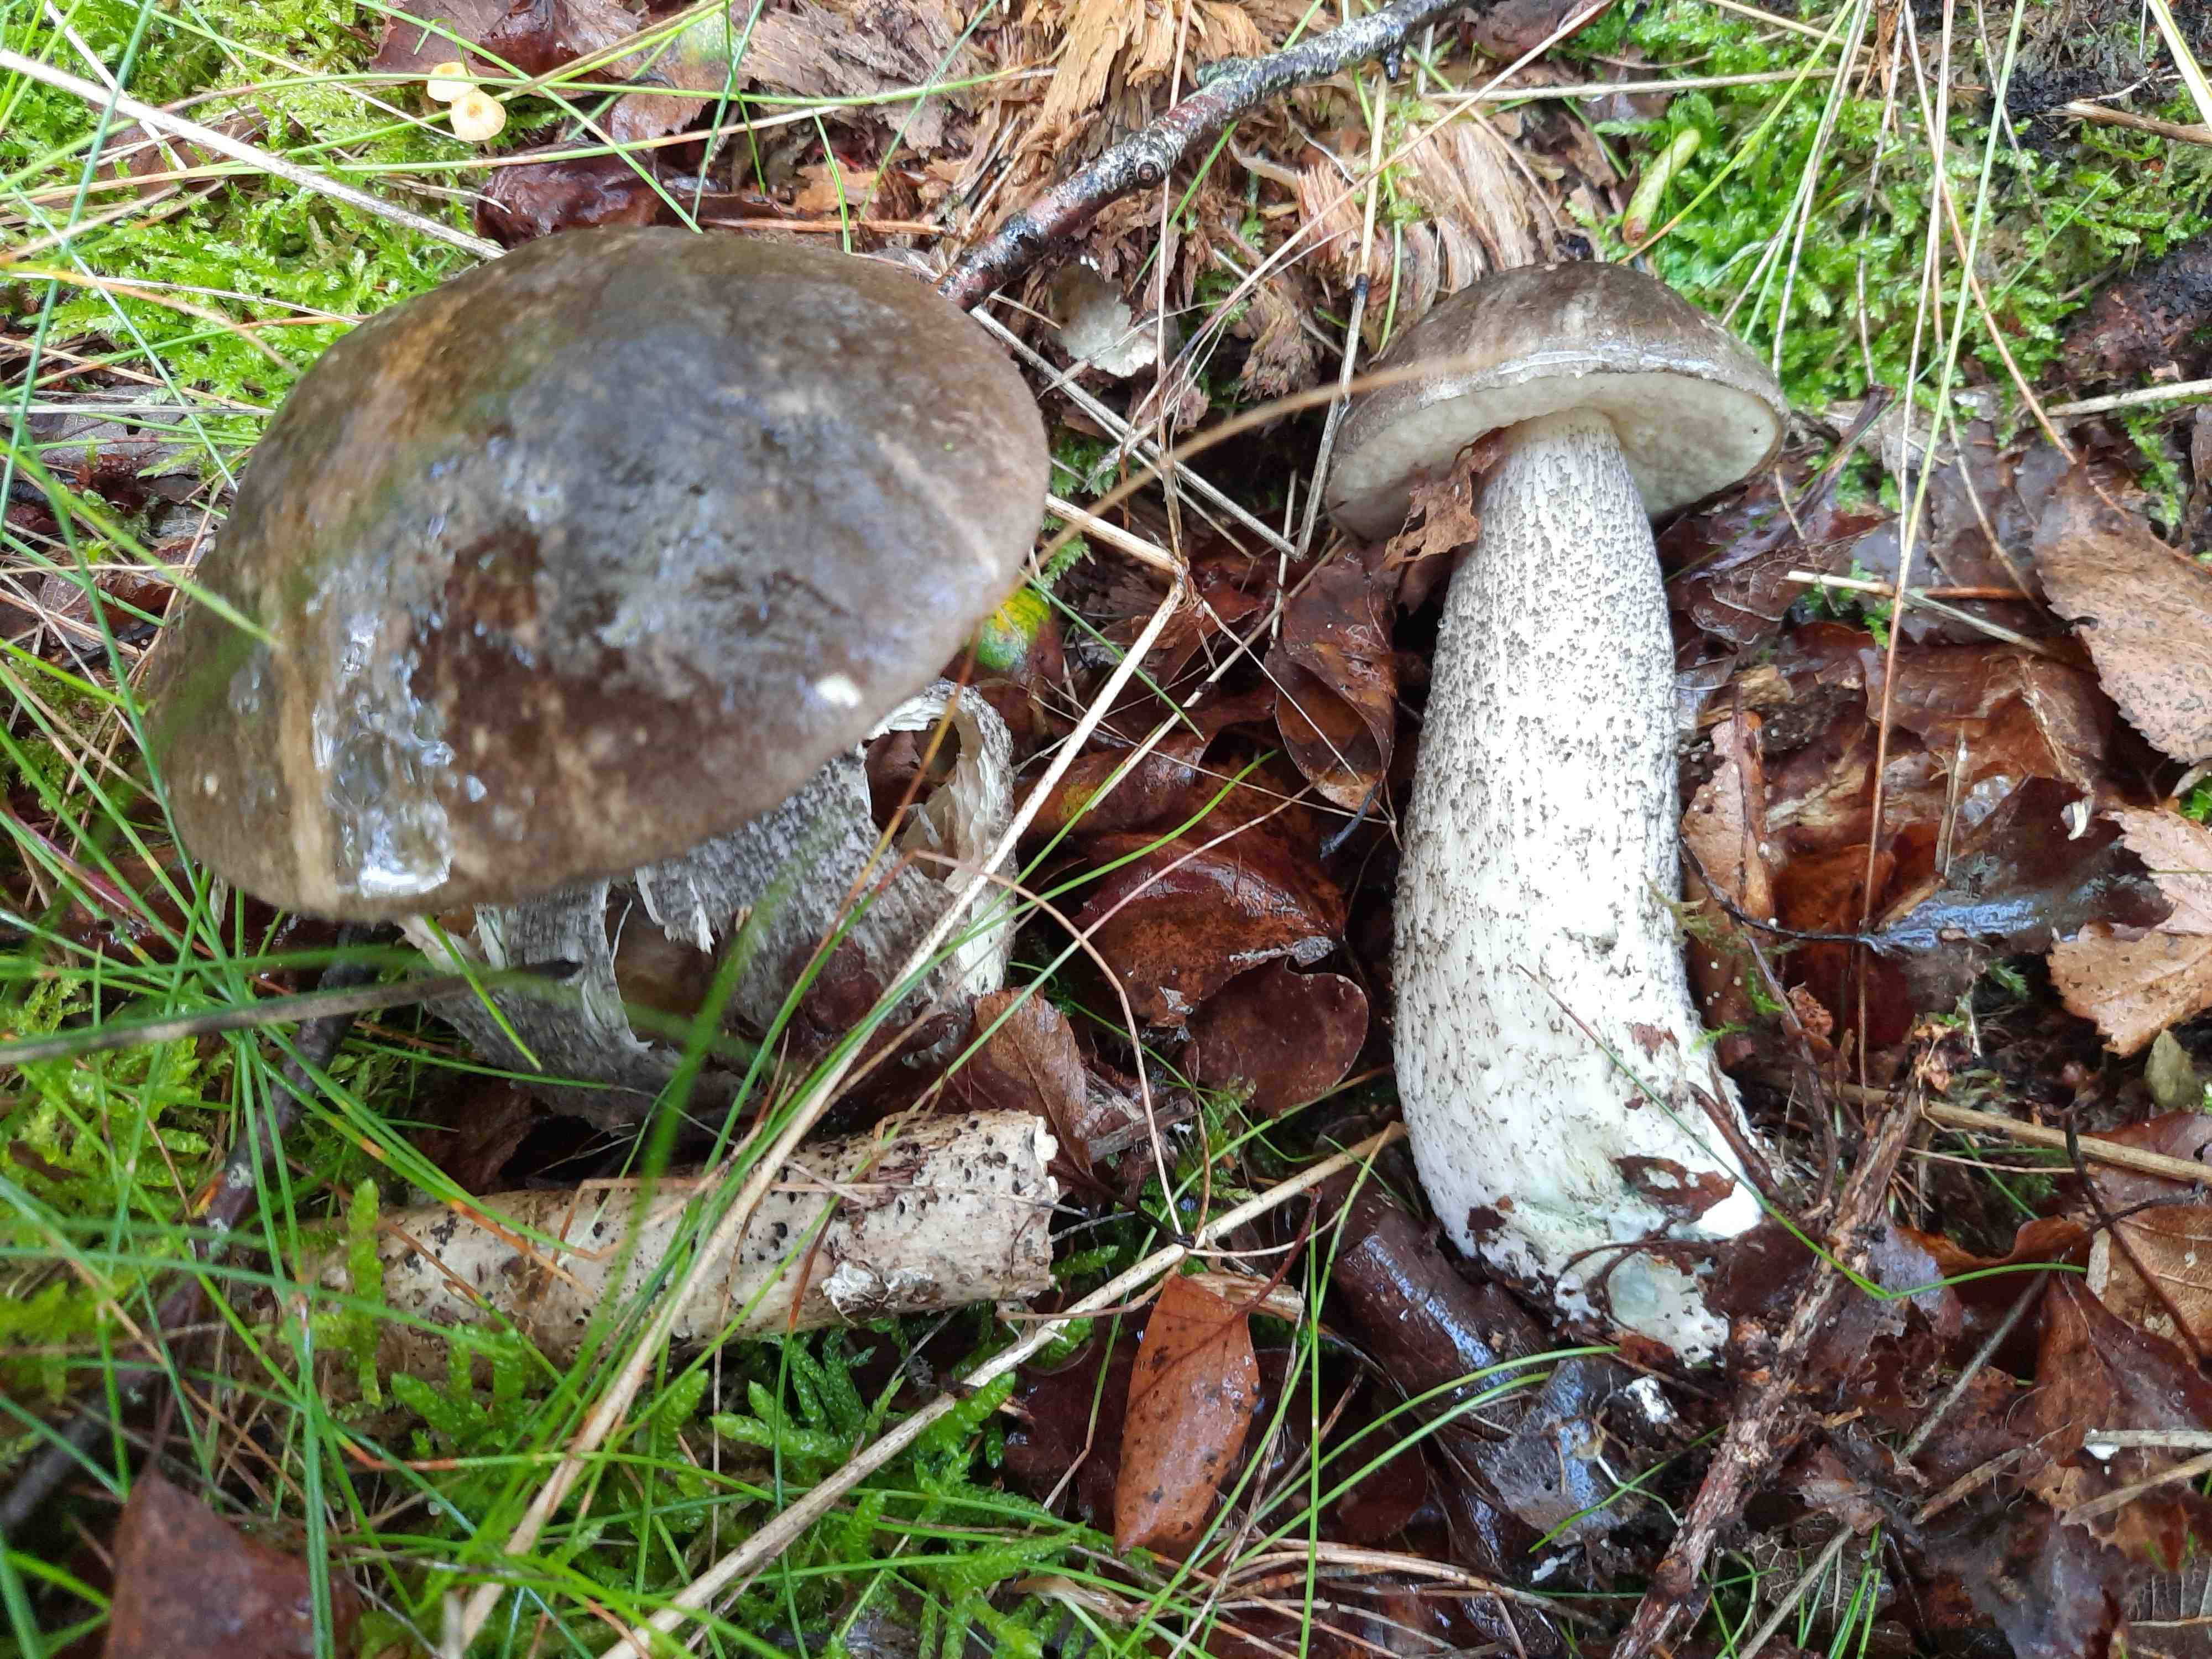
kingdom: Fungi
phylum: Basidiomycota
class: Agaricomycetes
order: Boletales
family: Boletaceae
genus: Leccinum
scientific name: Leccinum variicolor
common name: flammet skælrørhat
